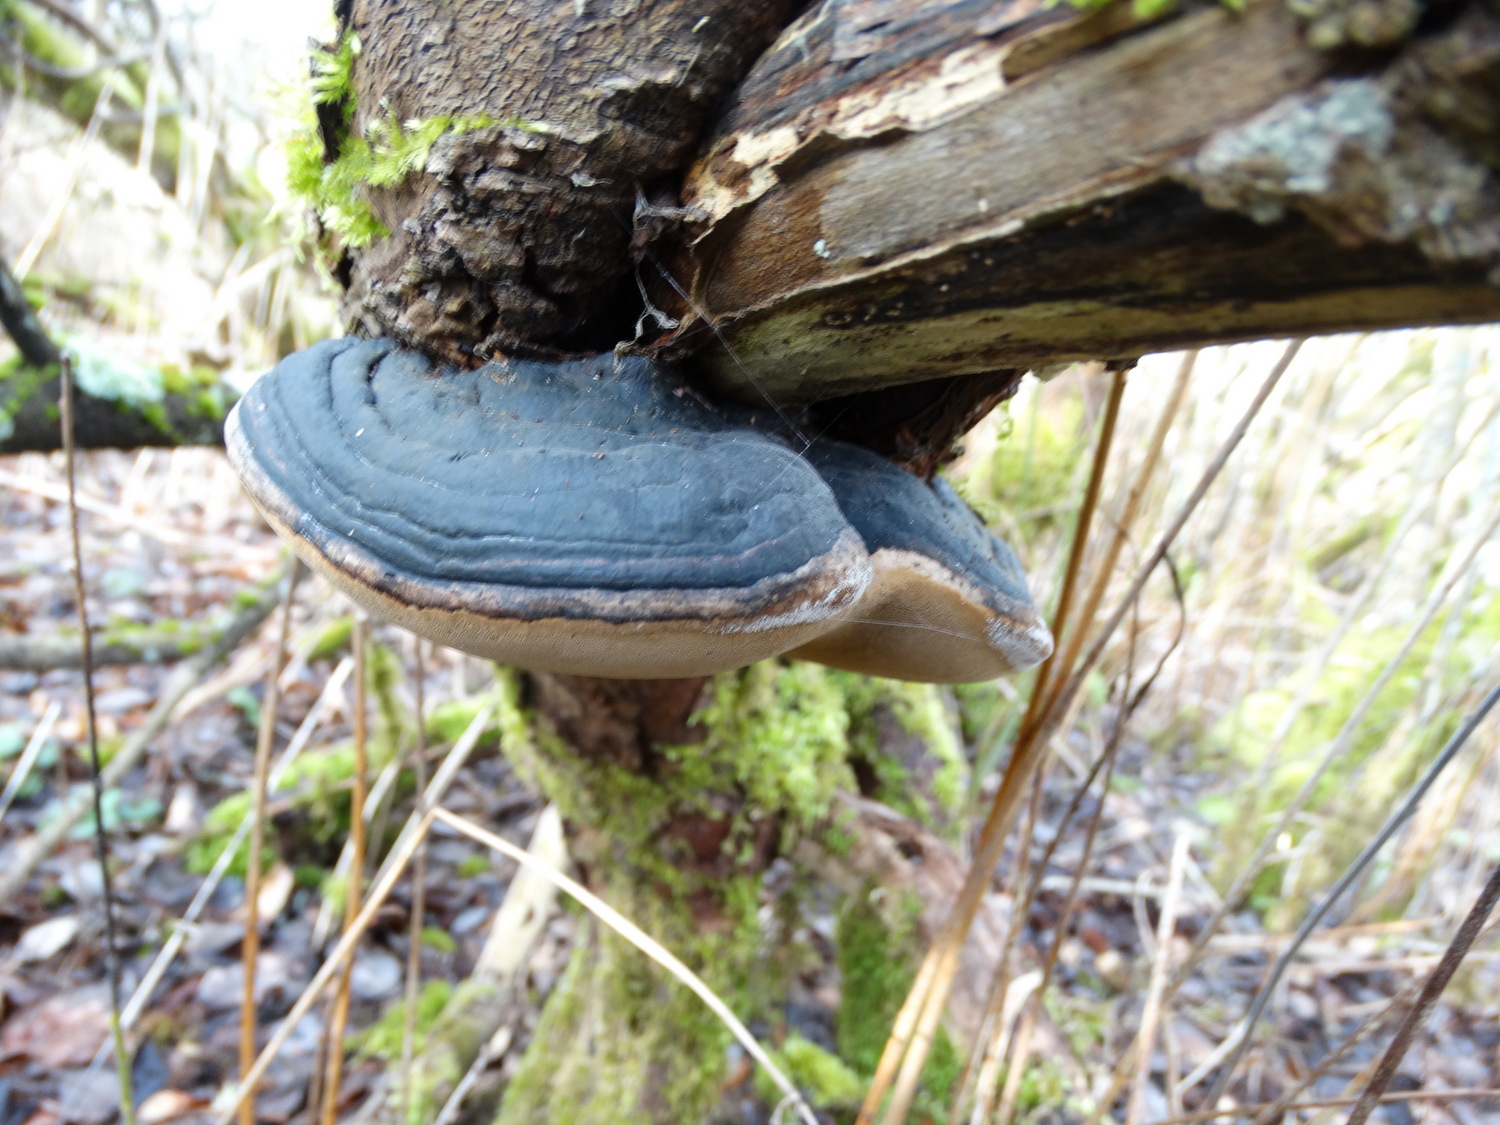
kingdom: Fungi
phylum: Basidiomycota
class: Agaricomycetes
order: Hymenochaetales
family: Hymenochaetaceae
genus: Phellinus
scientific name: Phellinus igniarius
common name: almindelig ildporesvamp
